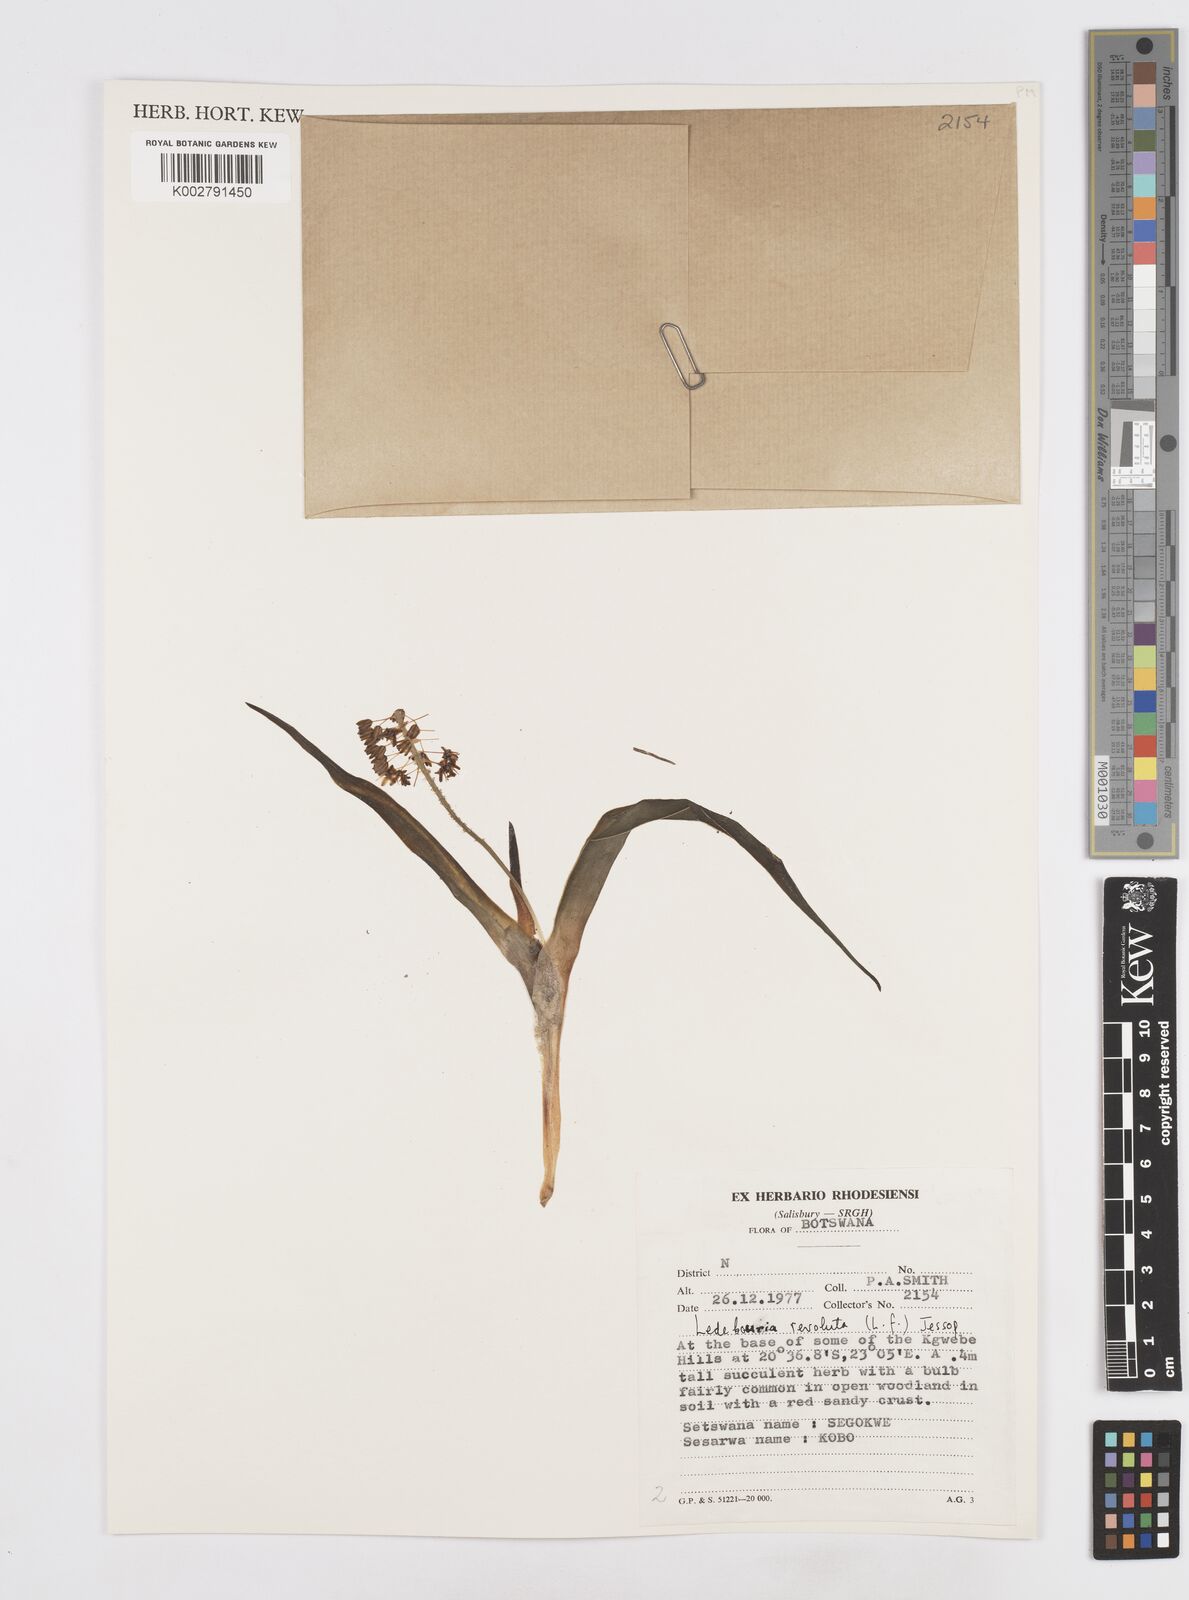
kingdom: Plantae
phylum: Tracheophyta
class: Liliopsida
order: Asparagales
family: Asparagaceae
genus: Ledebouria
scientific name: Ledebouria revoluta
